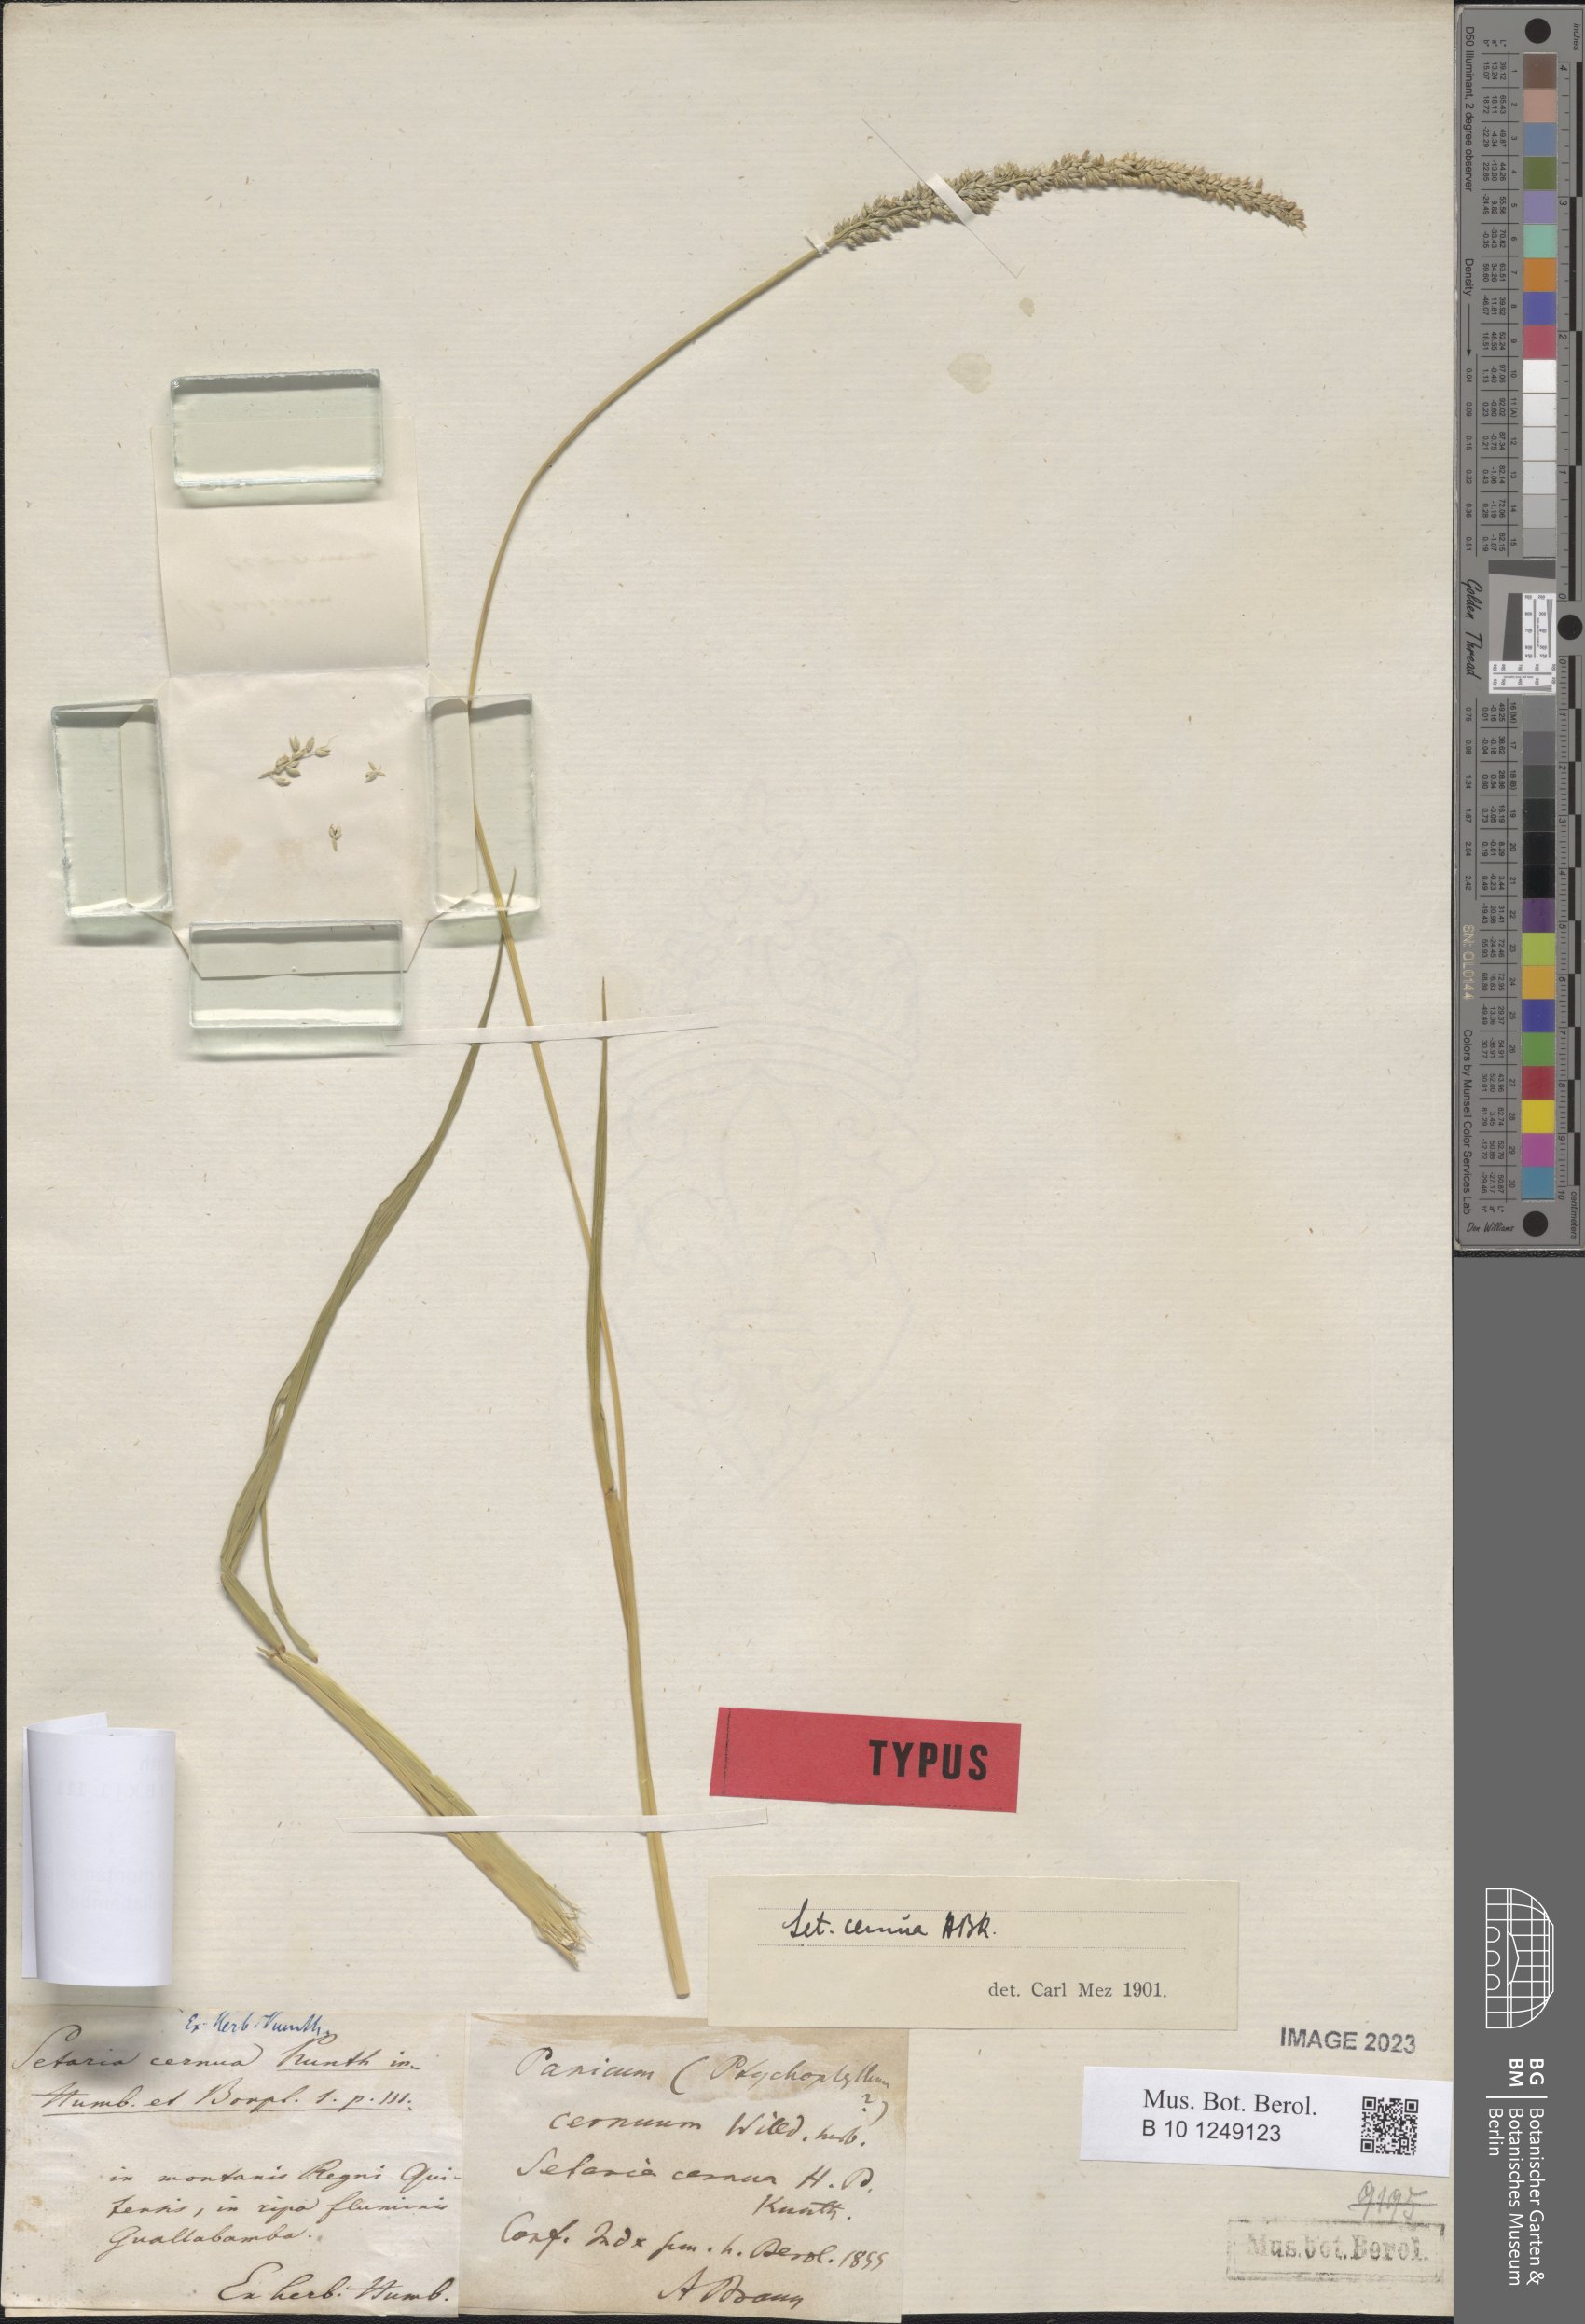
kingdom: Plantae
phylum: Tracheophyta
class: Liliopsida
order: Poales
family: Poaceae
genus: Setaria
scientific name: Setaria cernua
